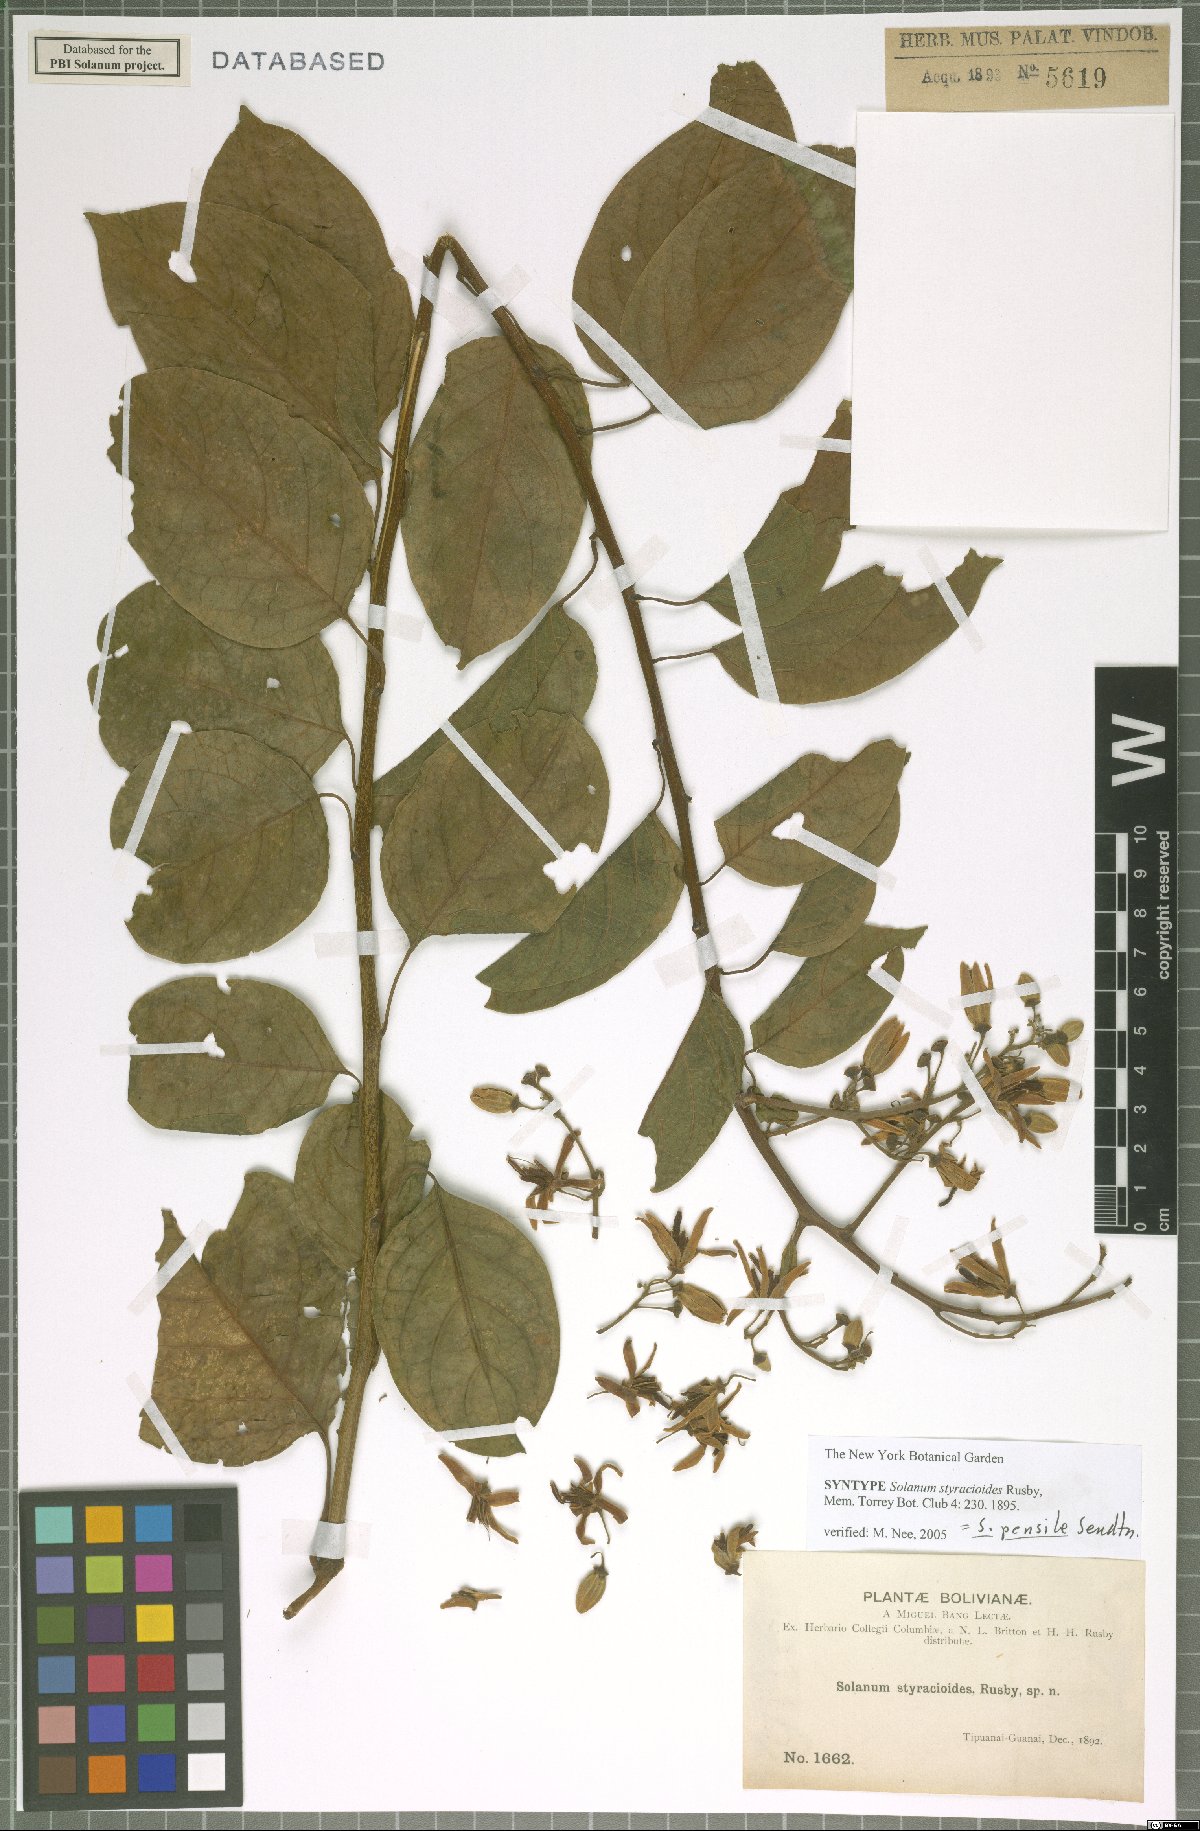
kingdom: Plantae
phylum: Tracheophyta
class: Magnoliopsida
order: Solanales
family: Solanaceae
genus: Solanum
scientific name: Solanum uncinellum
